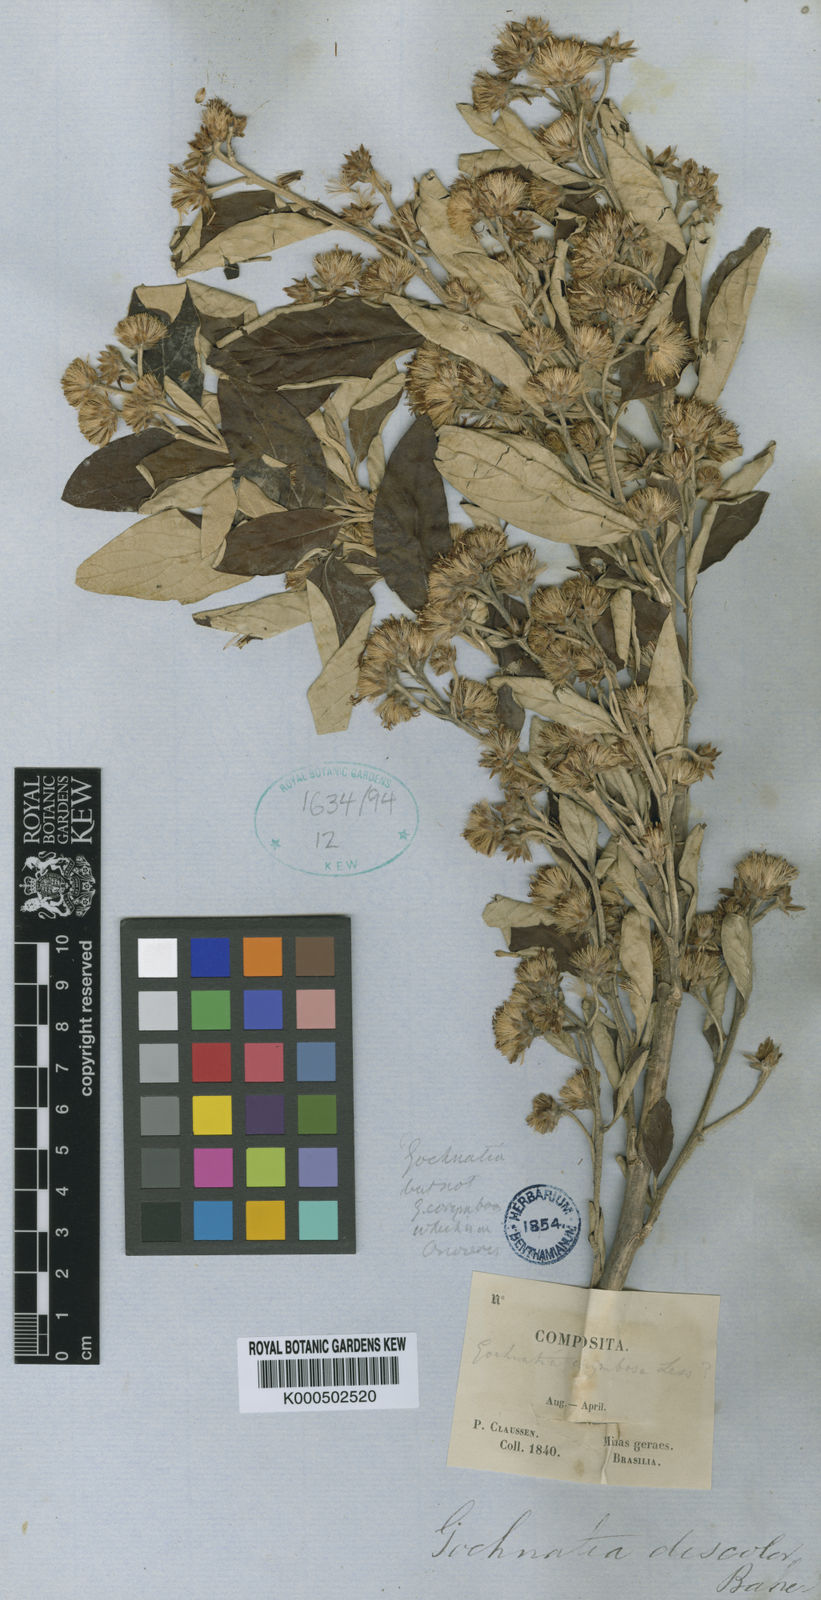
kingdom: Plantae
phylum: Tracheophyta
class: Magnoliopsida
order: Asterales
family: Asteraceae
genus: Moquiniastrum
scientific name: Moquiniastrum discolor
